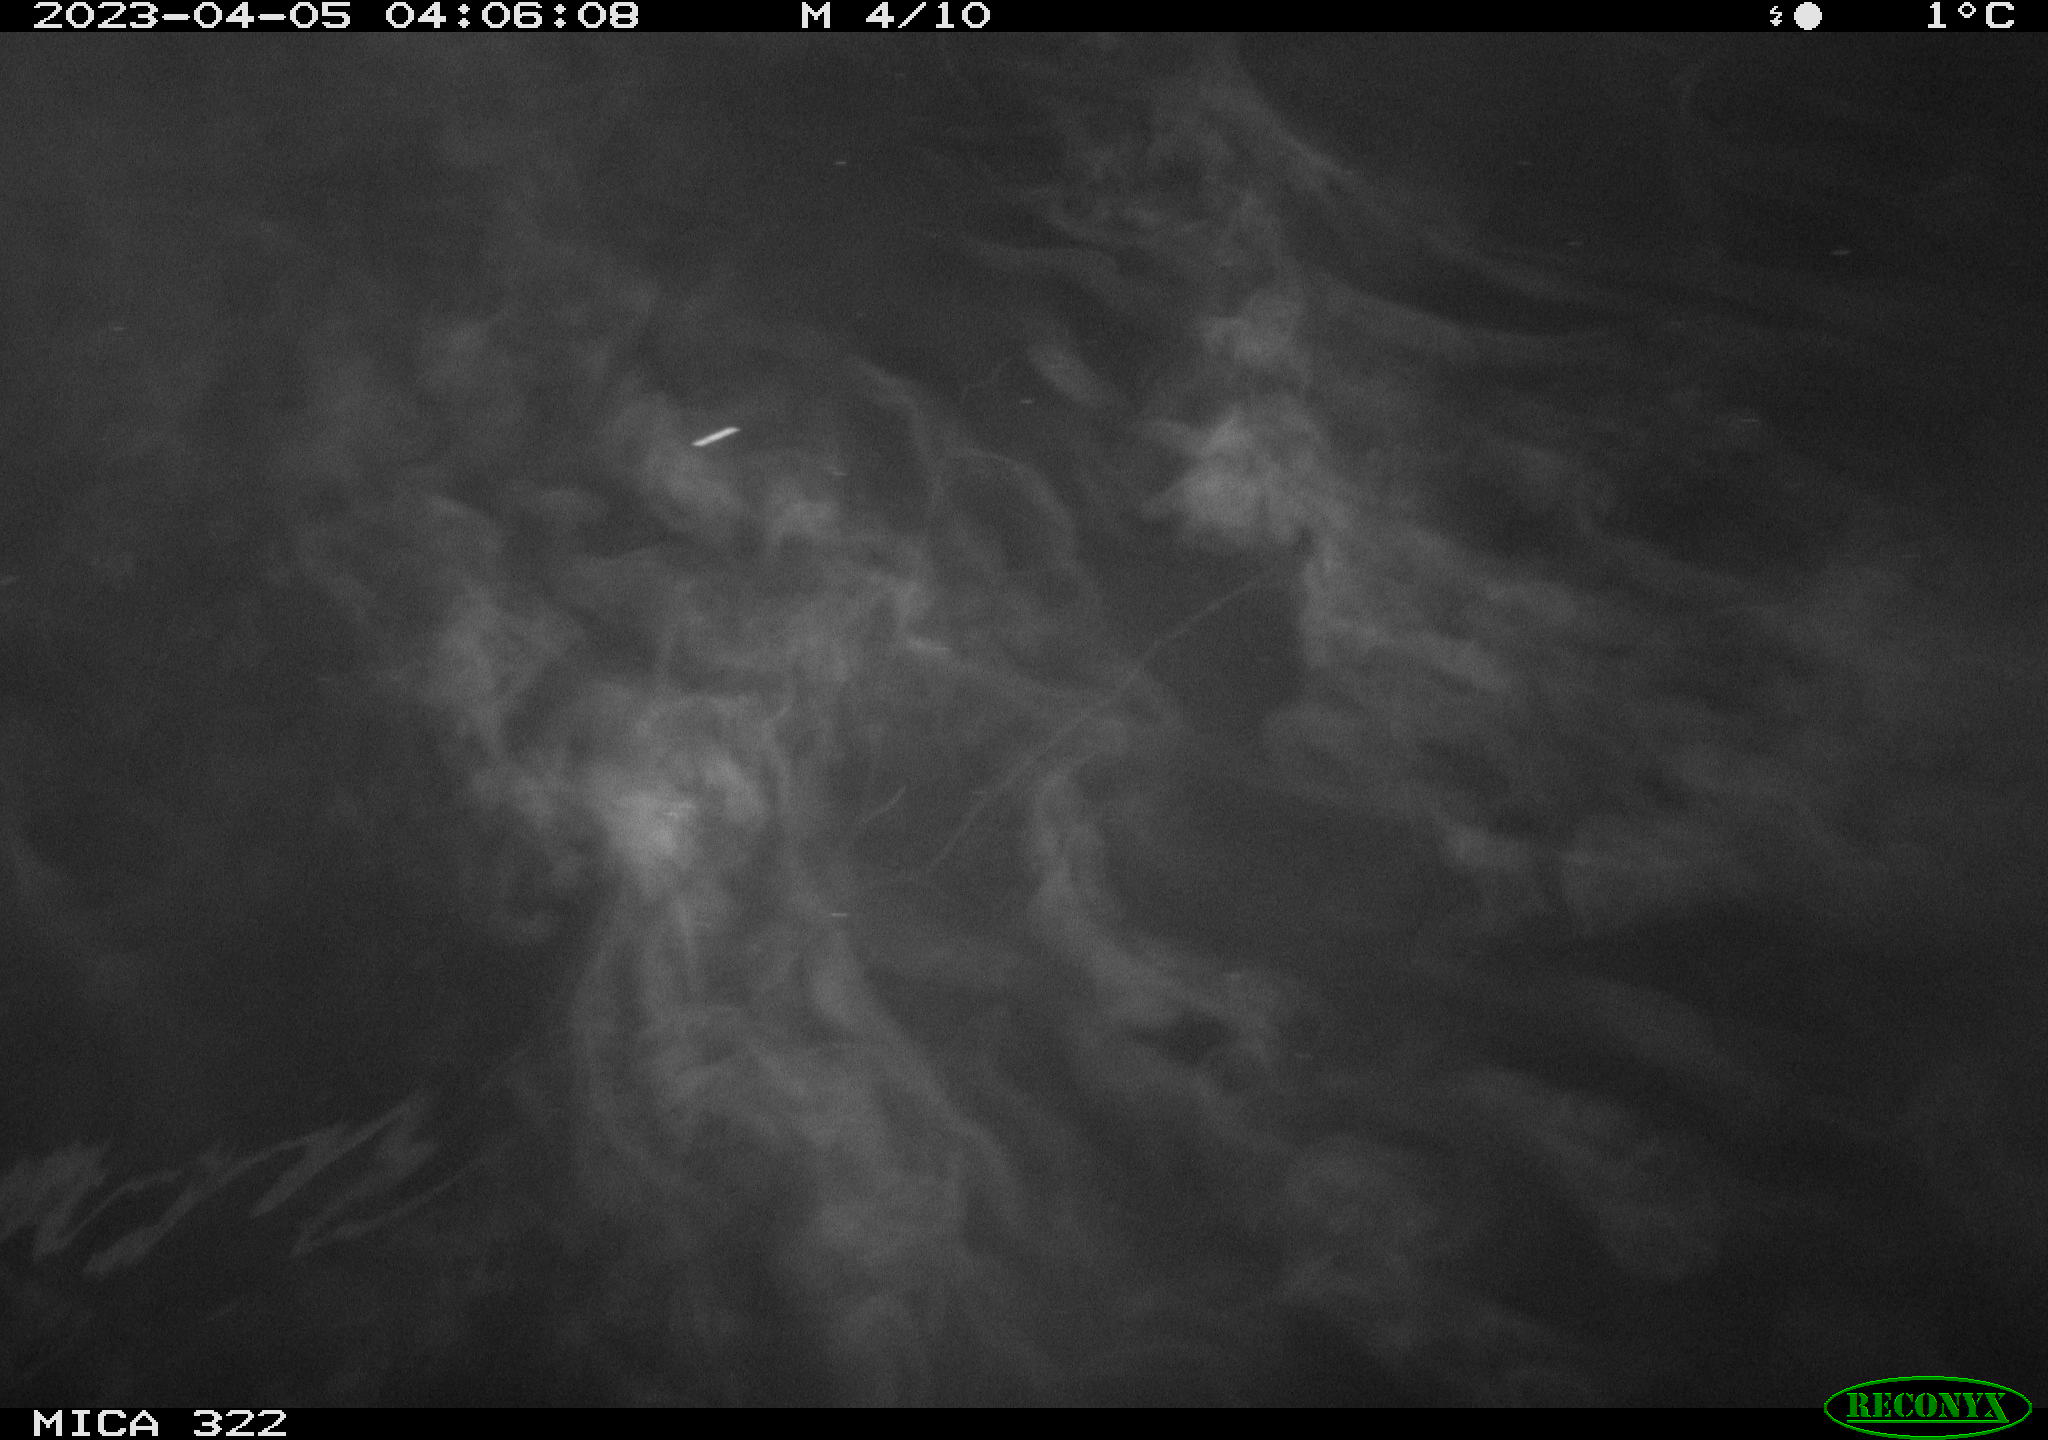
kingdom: Animalia
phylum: Chordata
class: Mammalia
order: Rodentia
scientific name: Rodentia
